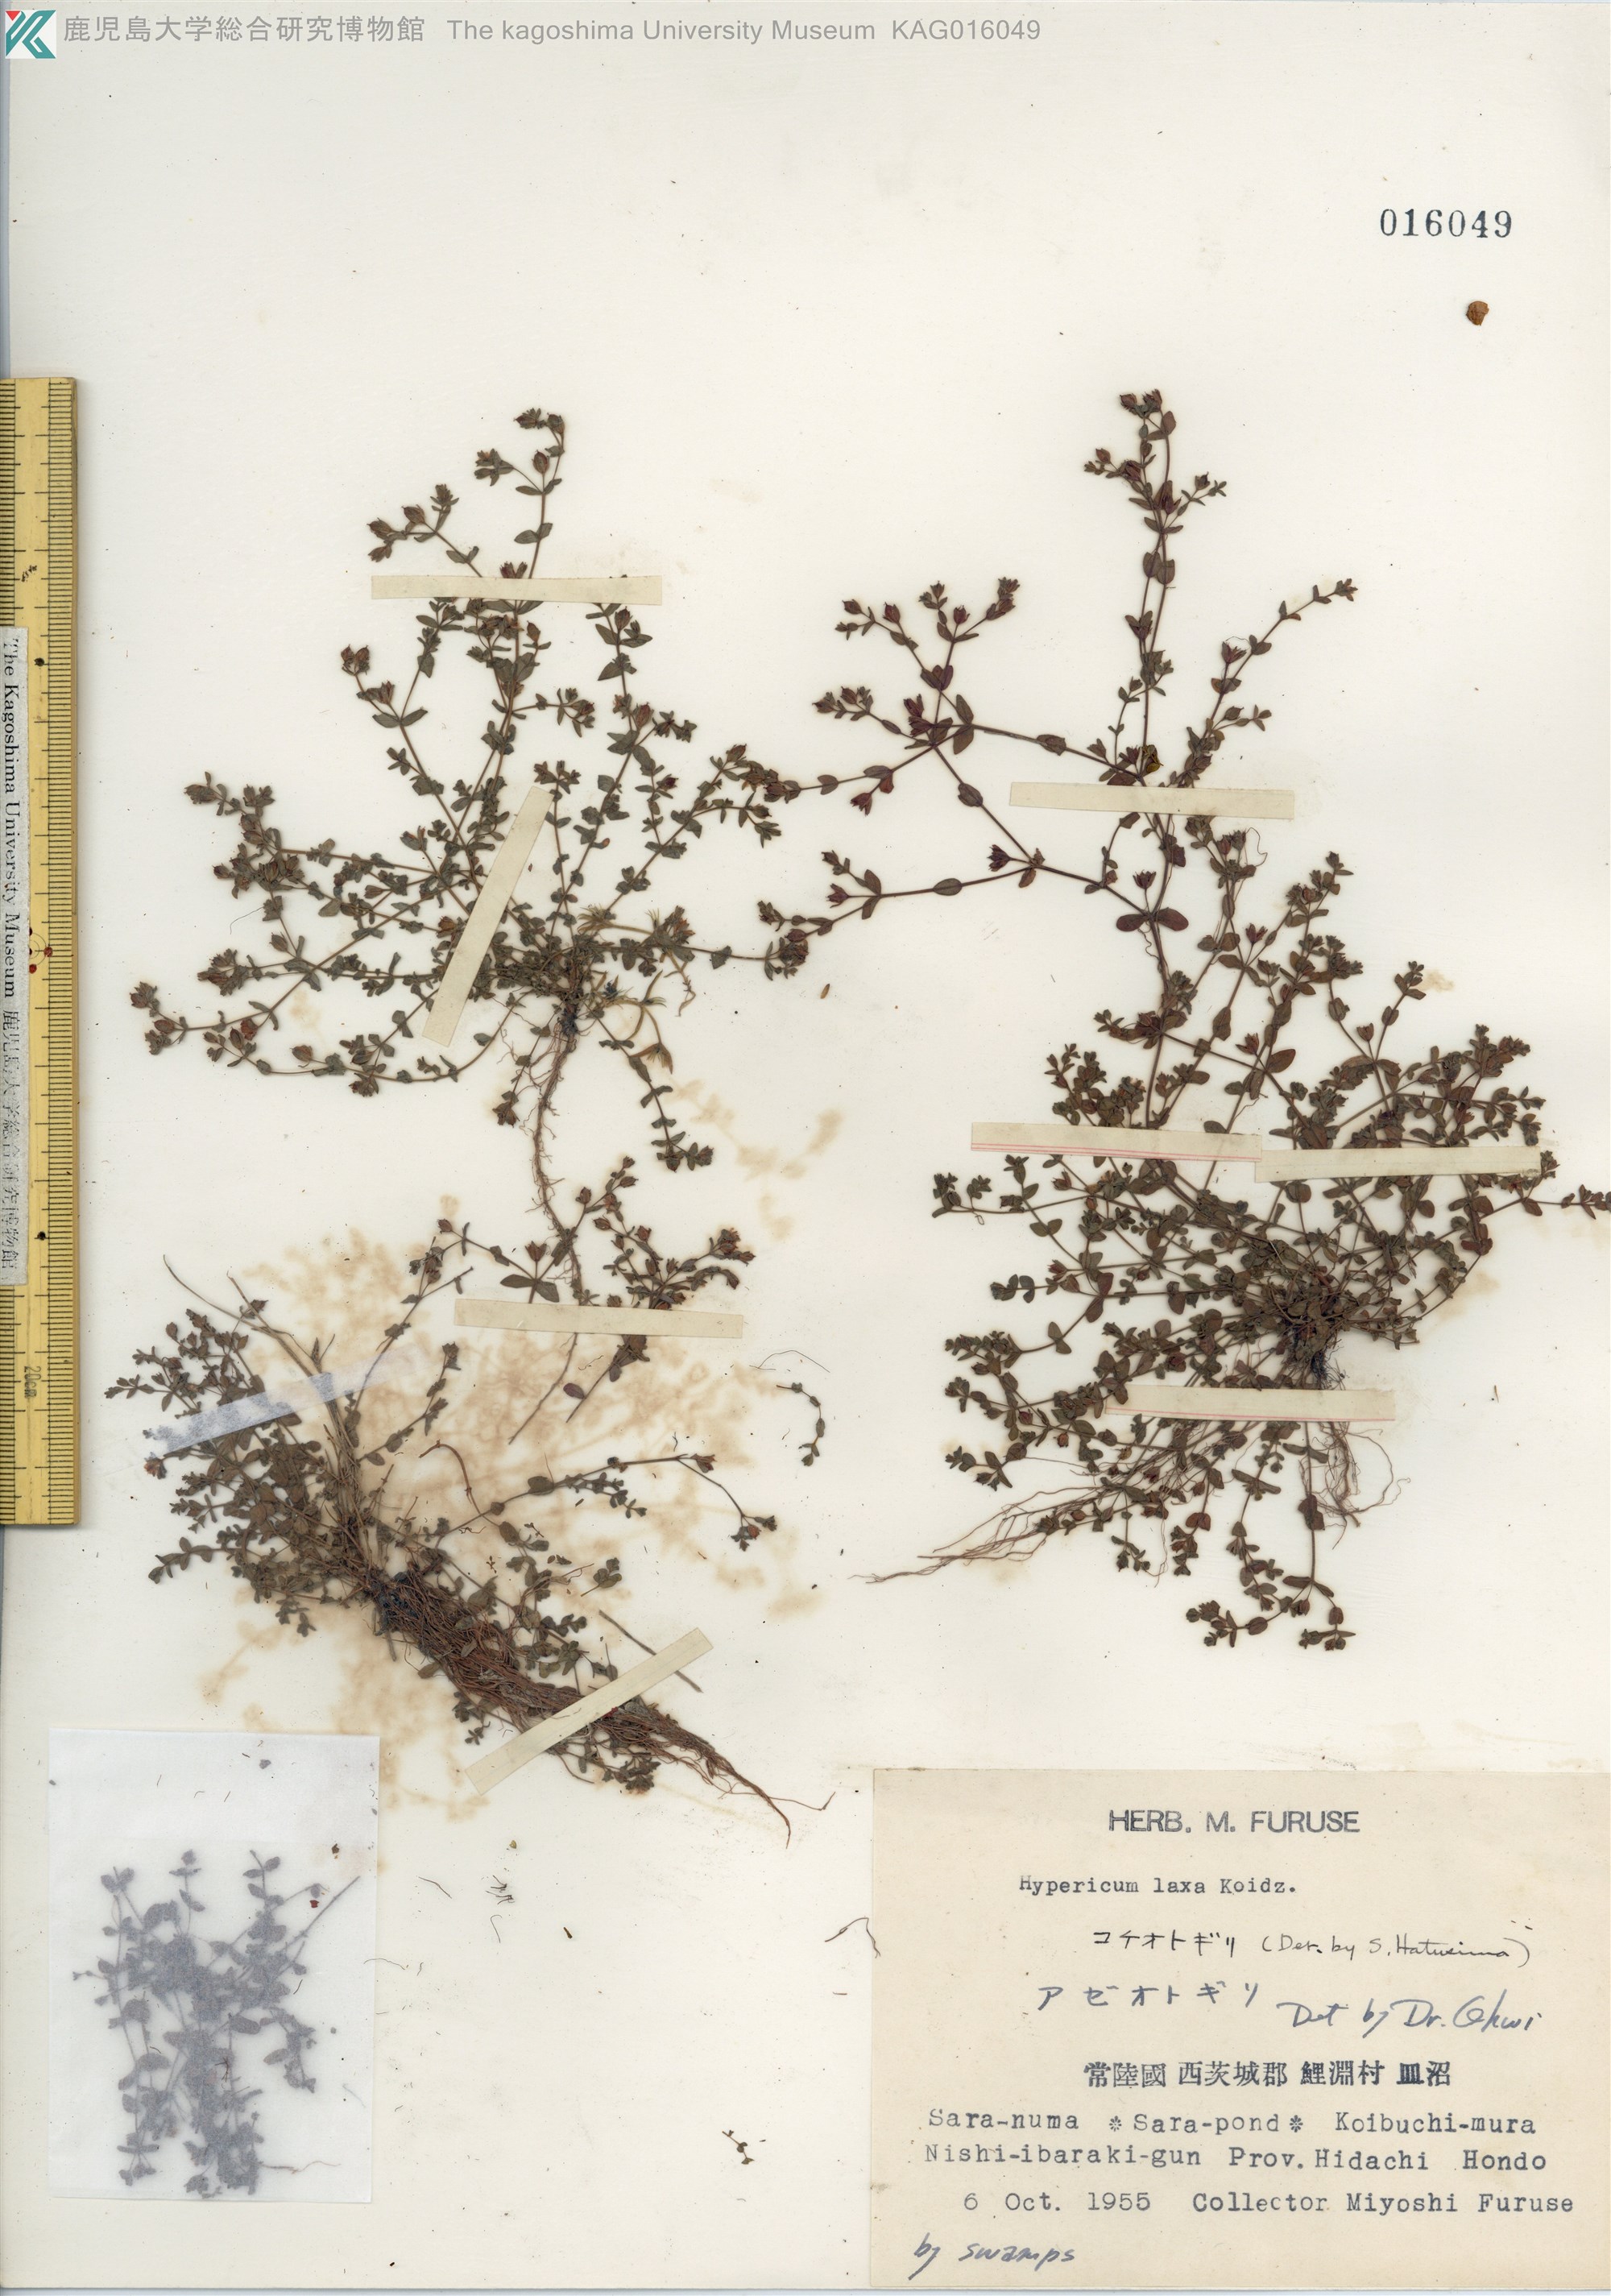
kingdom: Plantae
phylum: Tracheophyta
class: Magnoliopsida
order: Malpighiales
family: Hypericaceae
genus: Hypericum
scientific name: Hypericum japonicum
